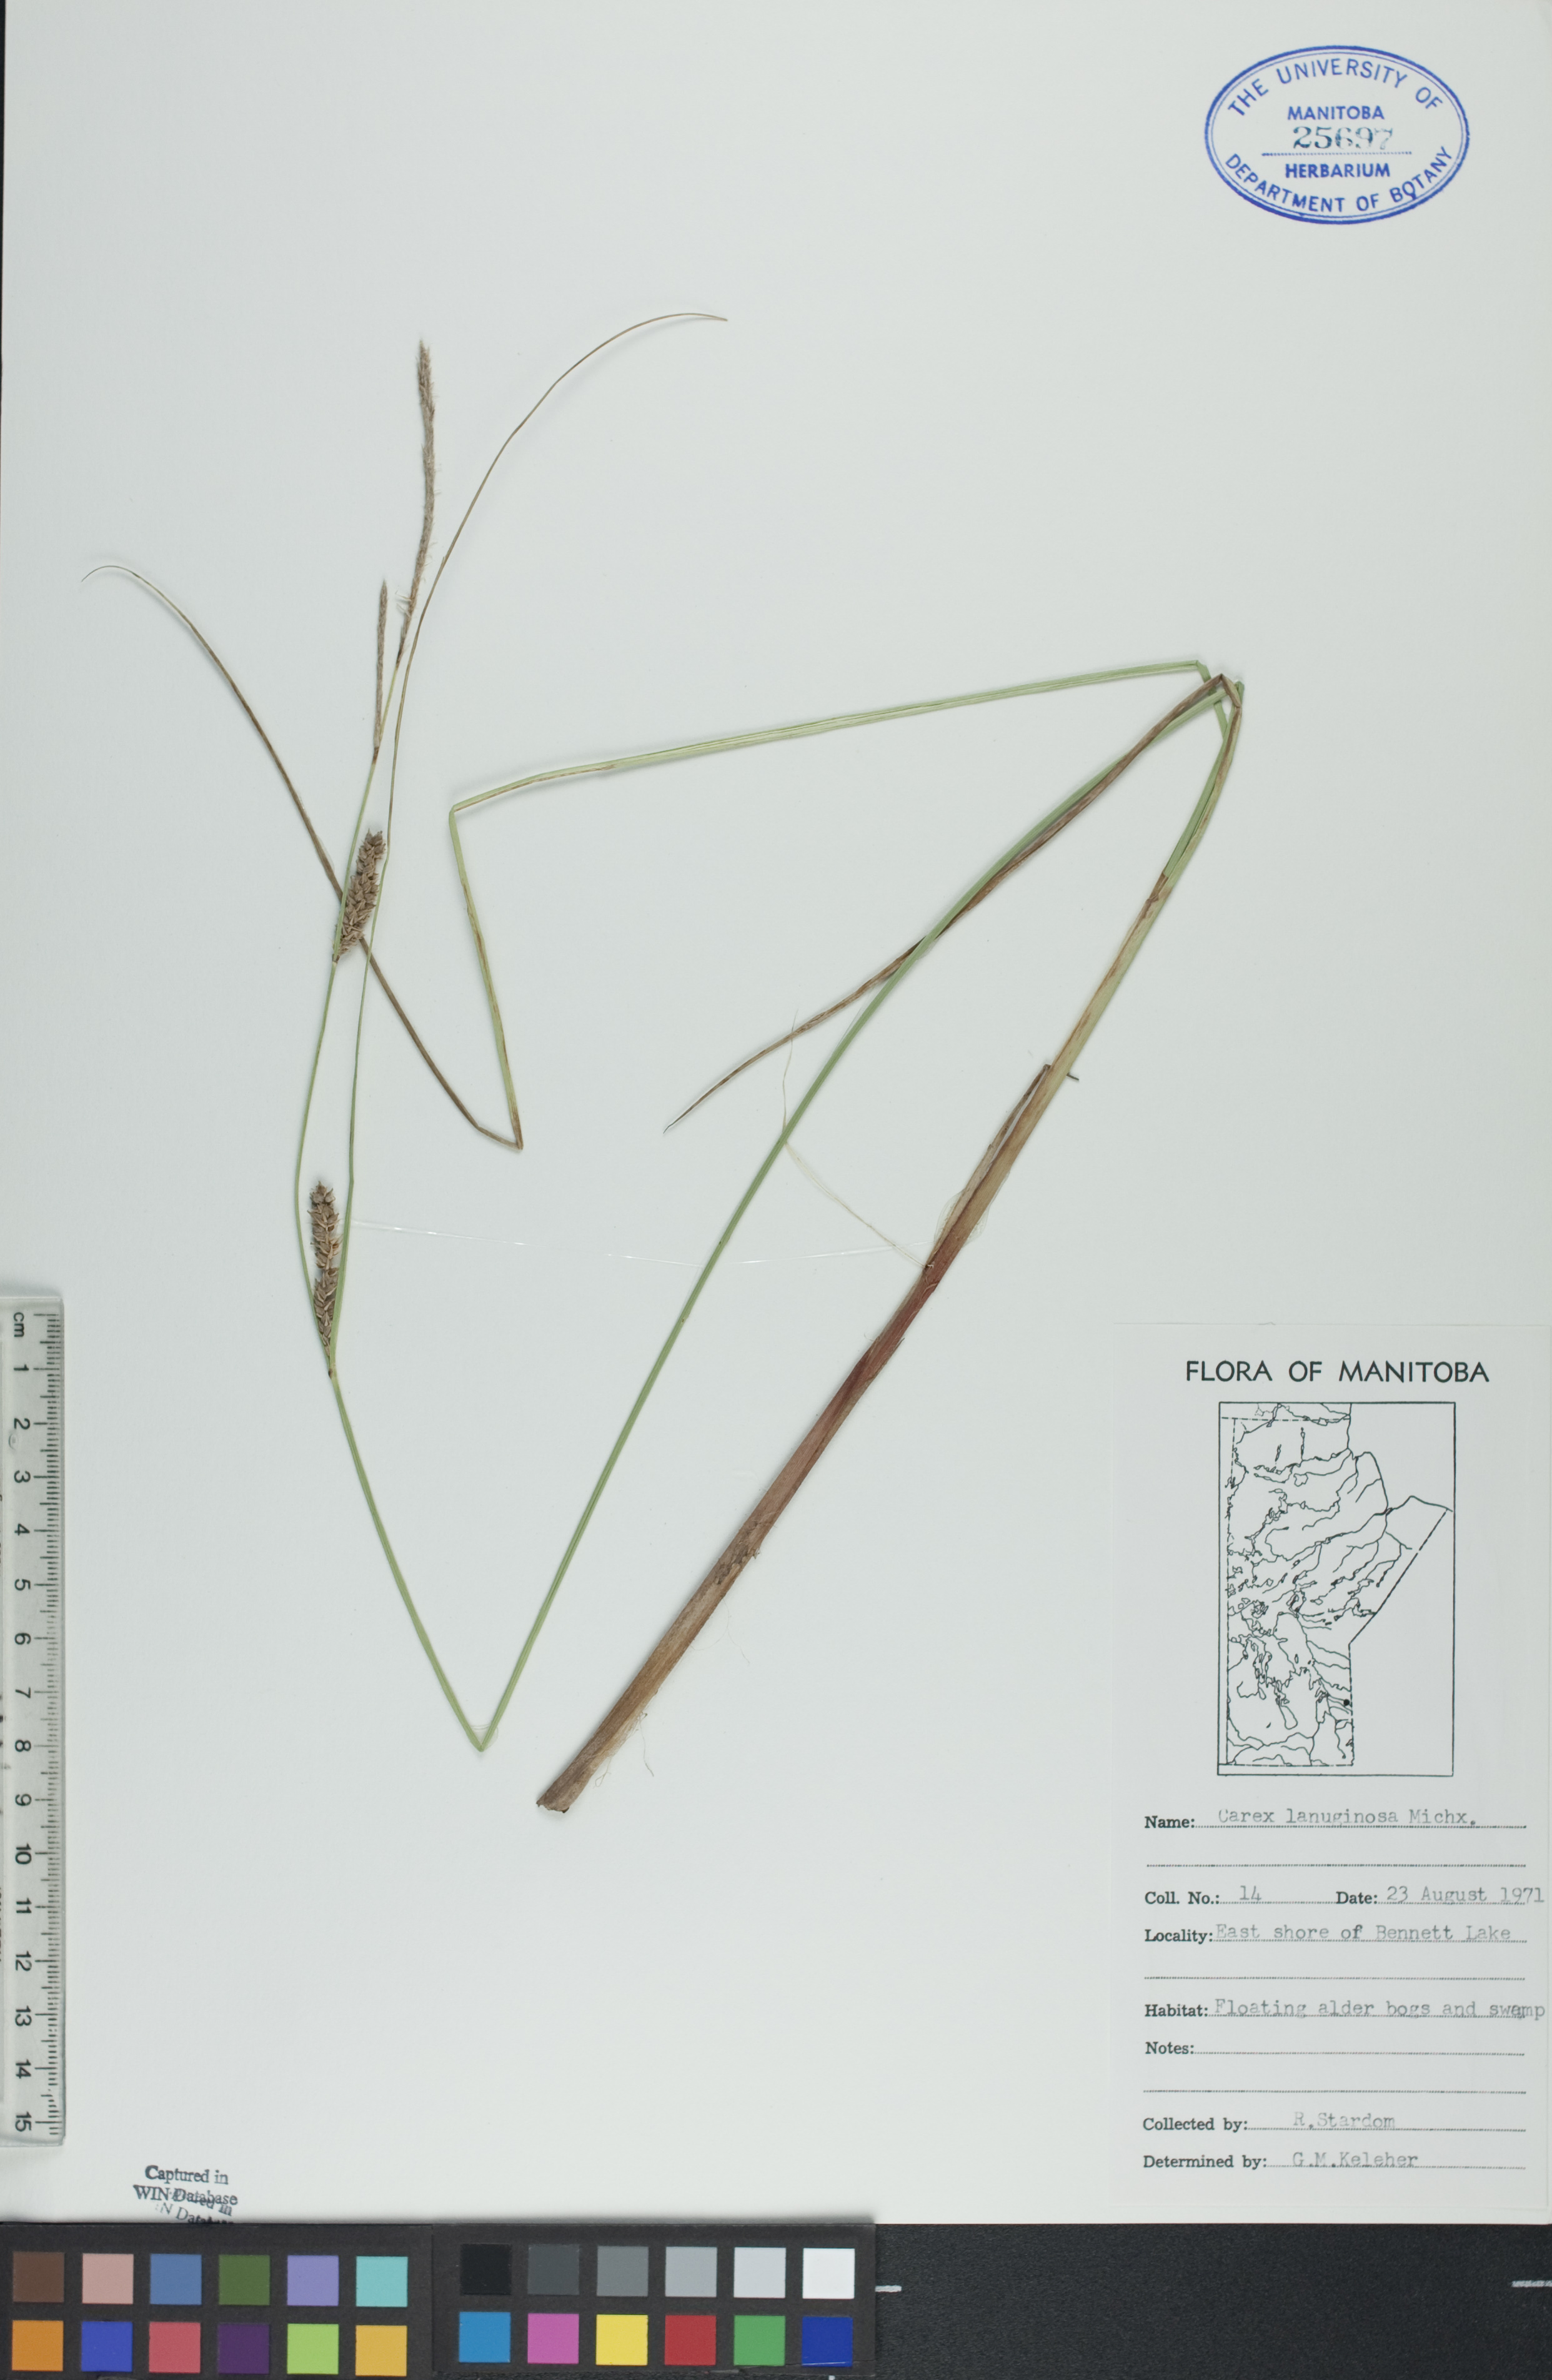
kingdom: Plantae
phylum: Tracheophyta
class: Liliopsida
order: Poales
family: Cyperaceae
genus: Carex
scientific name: Carex lasiocarpa
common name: Slender sedge
